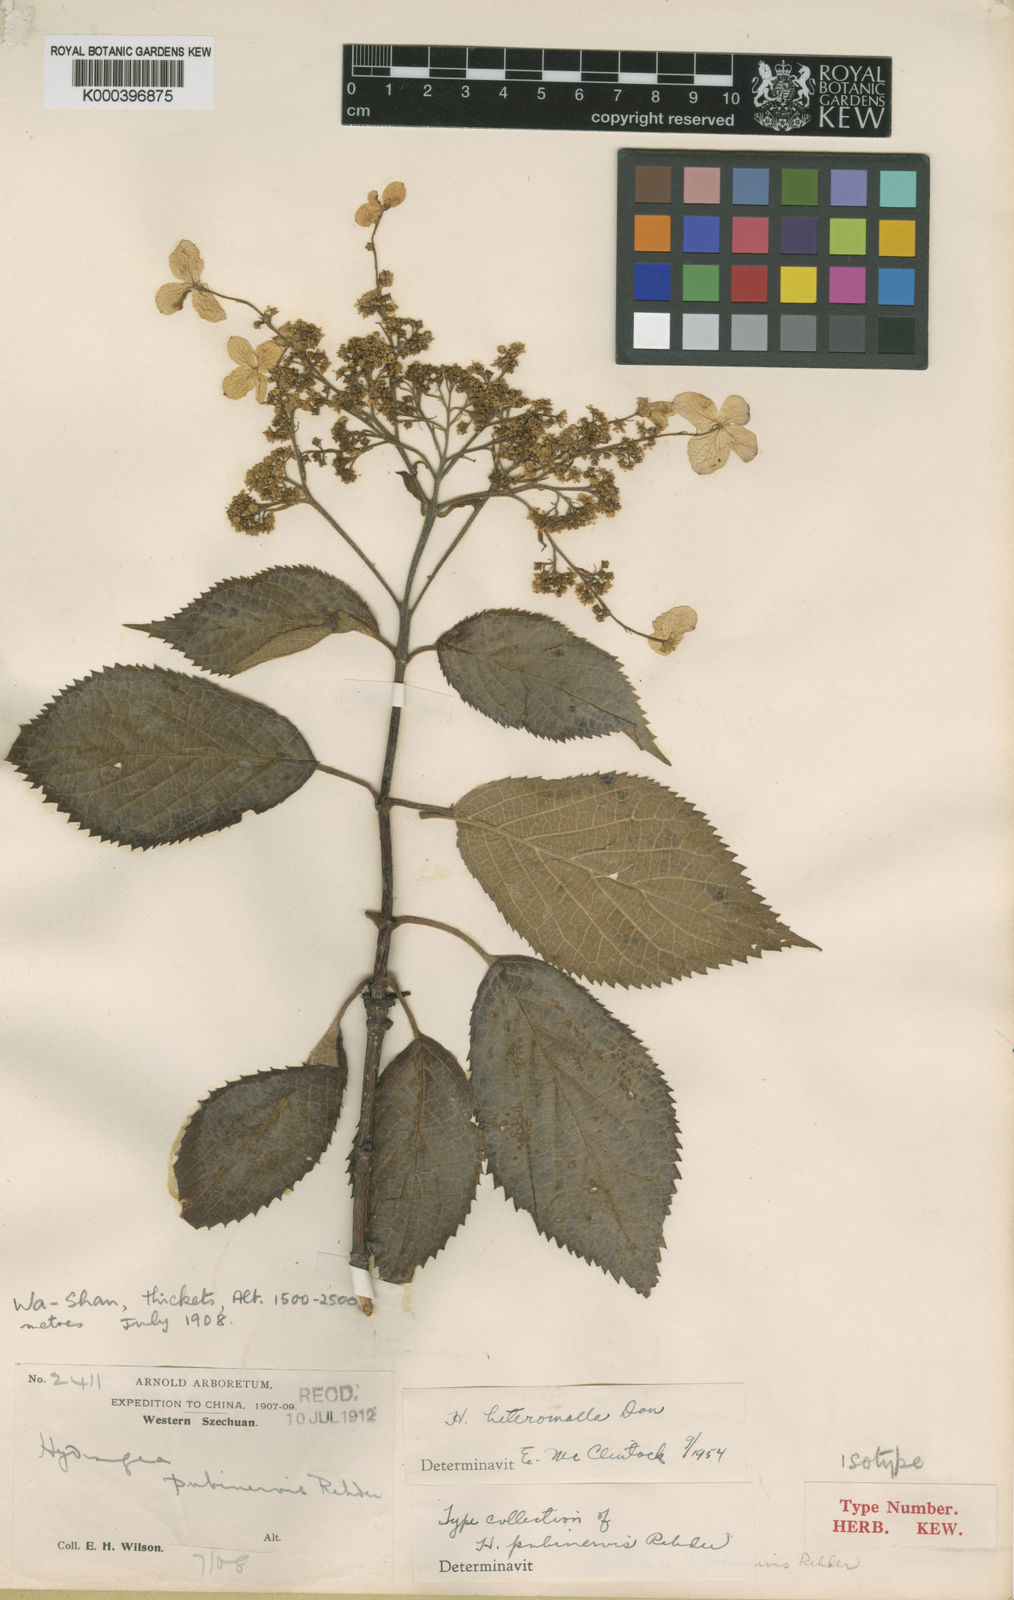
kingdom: Plantae
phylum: Tracheophyta
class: Magnoliopsida
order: Cornales
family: Hydrangeaceae
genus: Hydrangea
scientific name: Hydrangea heteromalla
